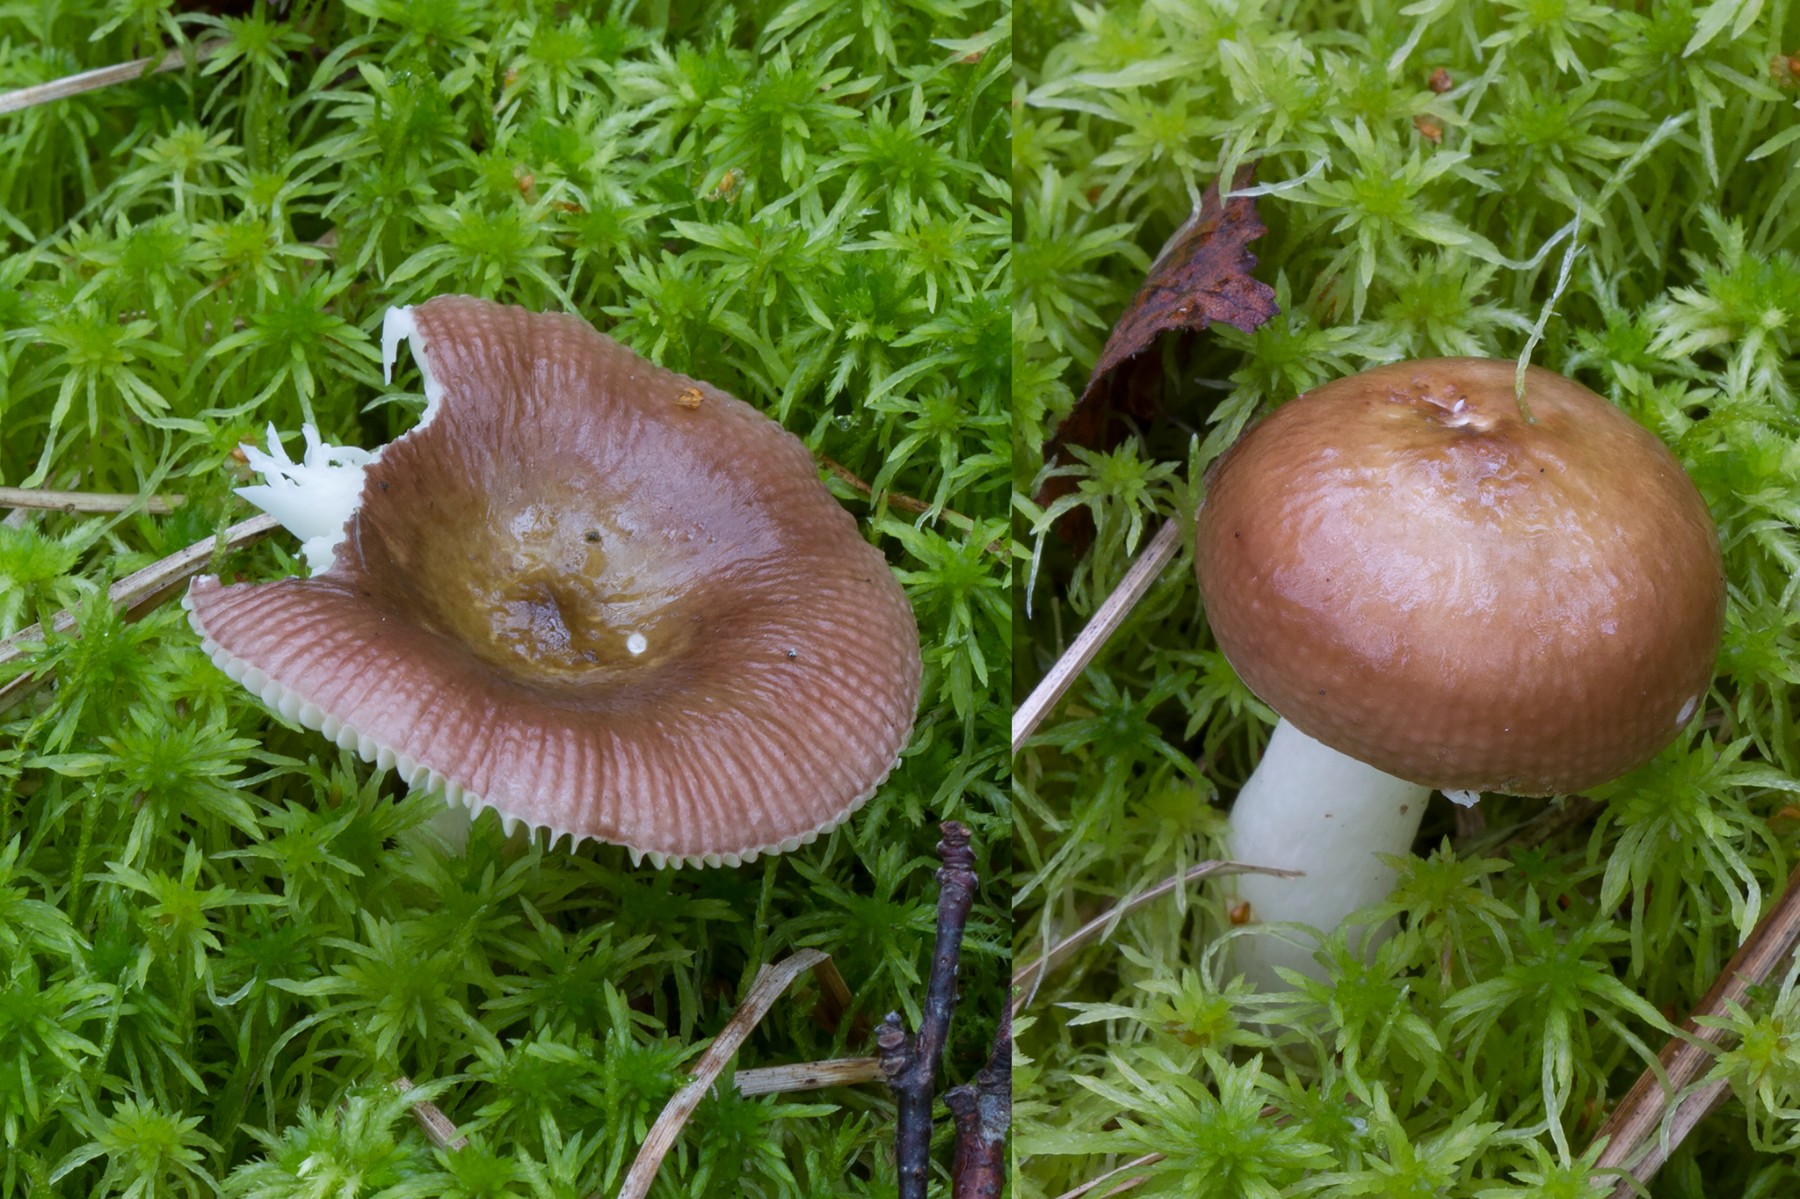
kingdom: Fungi
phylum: Basidiomycota
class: Agaricomycetes
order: Russulales
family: Russulaceae
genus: Russula
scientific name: Russula nitida
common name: året skørhat
